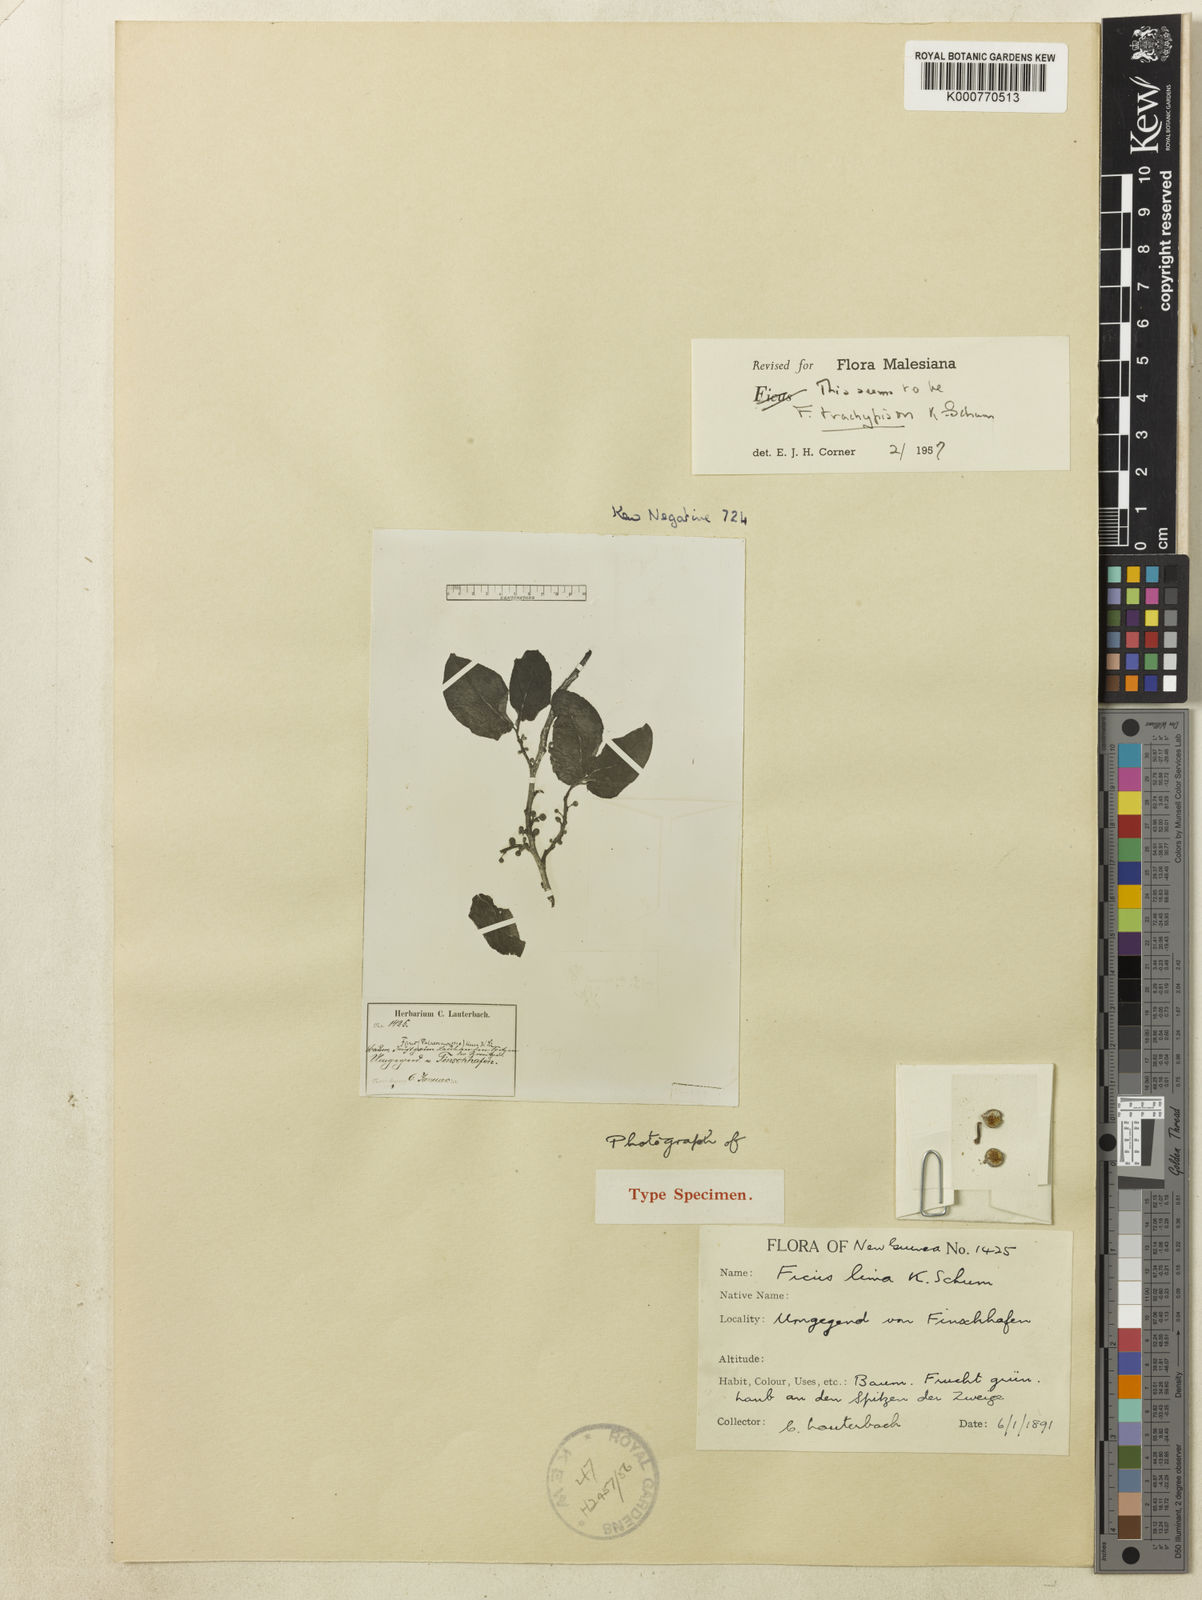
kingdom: Plantae
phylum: Tracheophyta
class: Magnoliopsida
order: Rosales
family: Moraceae
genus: Ficus
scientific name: Ficus trachypison
